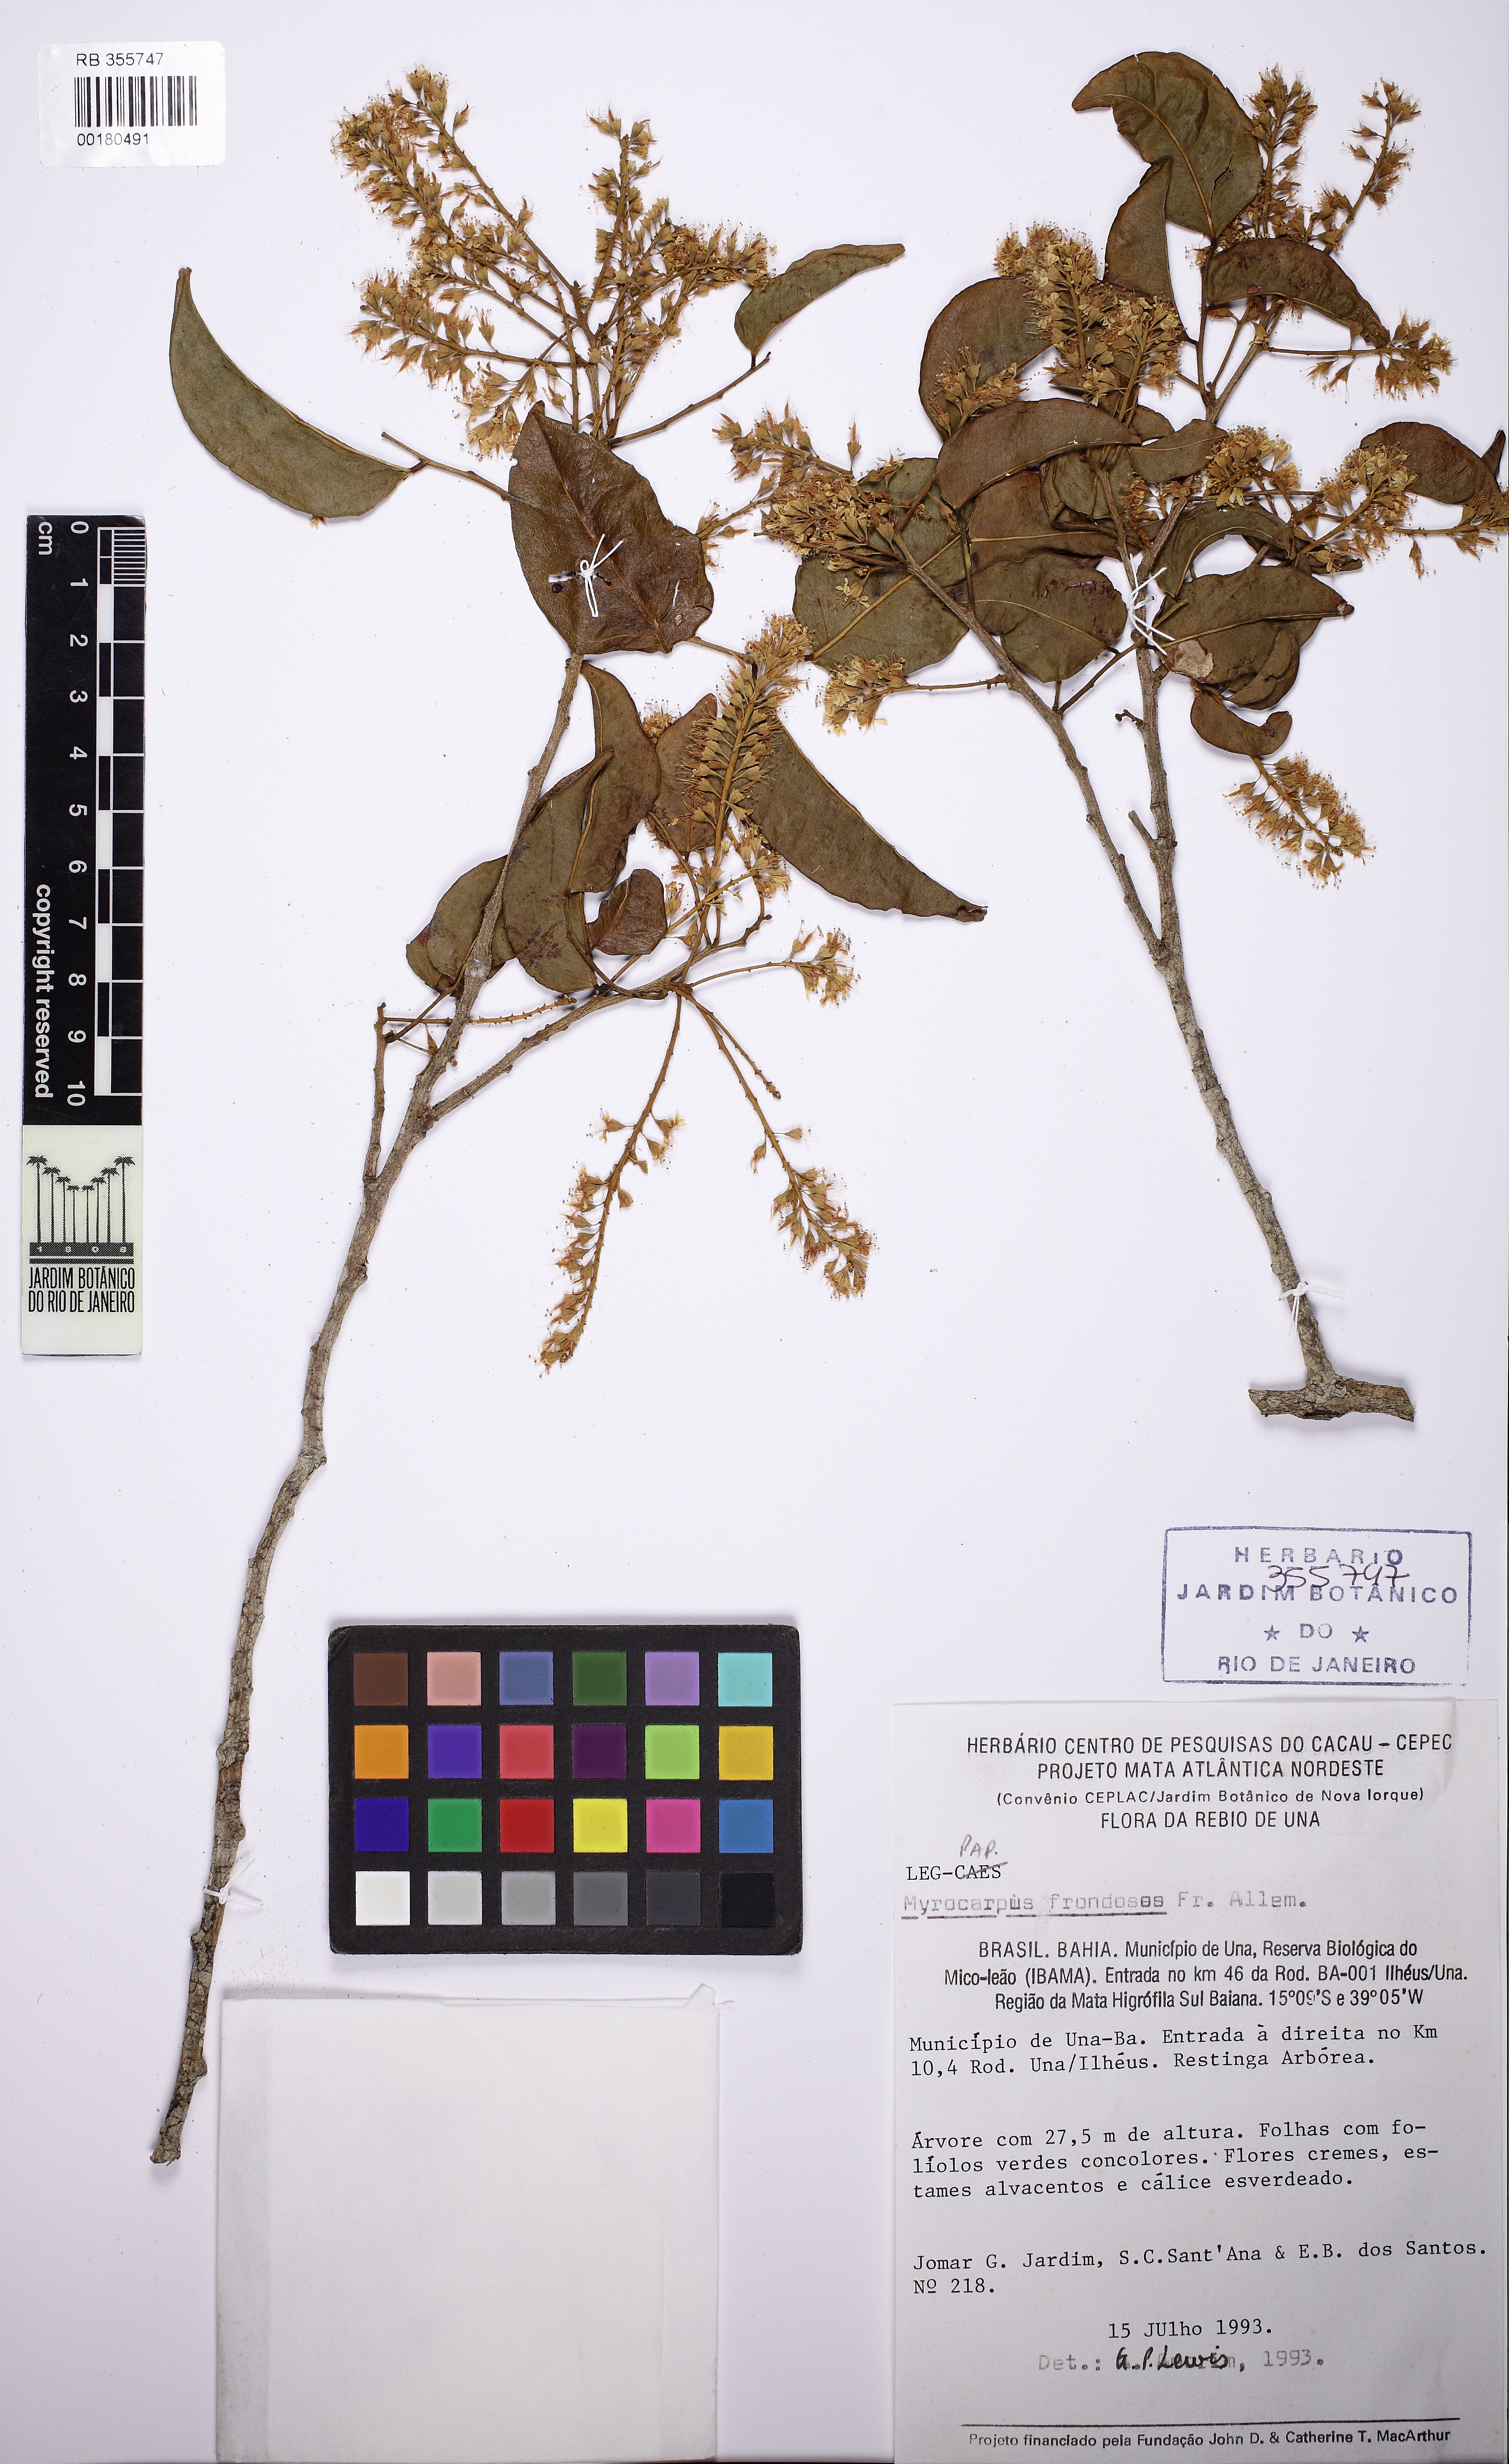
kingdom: Plantae
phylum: Tracheophyta
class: Magnoliopsida
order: Fabales
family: Fabaceae
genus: Myrocarpus
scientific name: Myrocarpus frondosus
